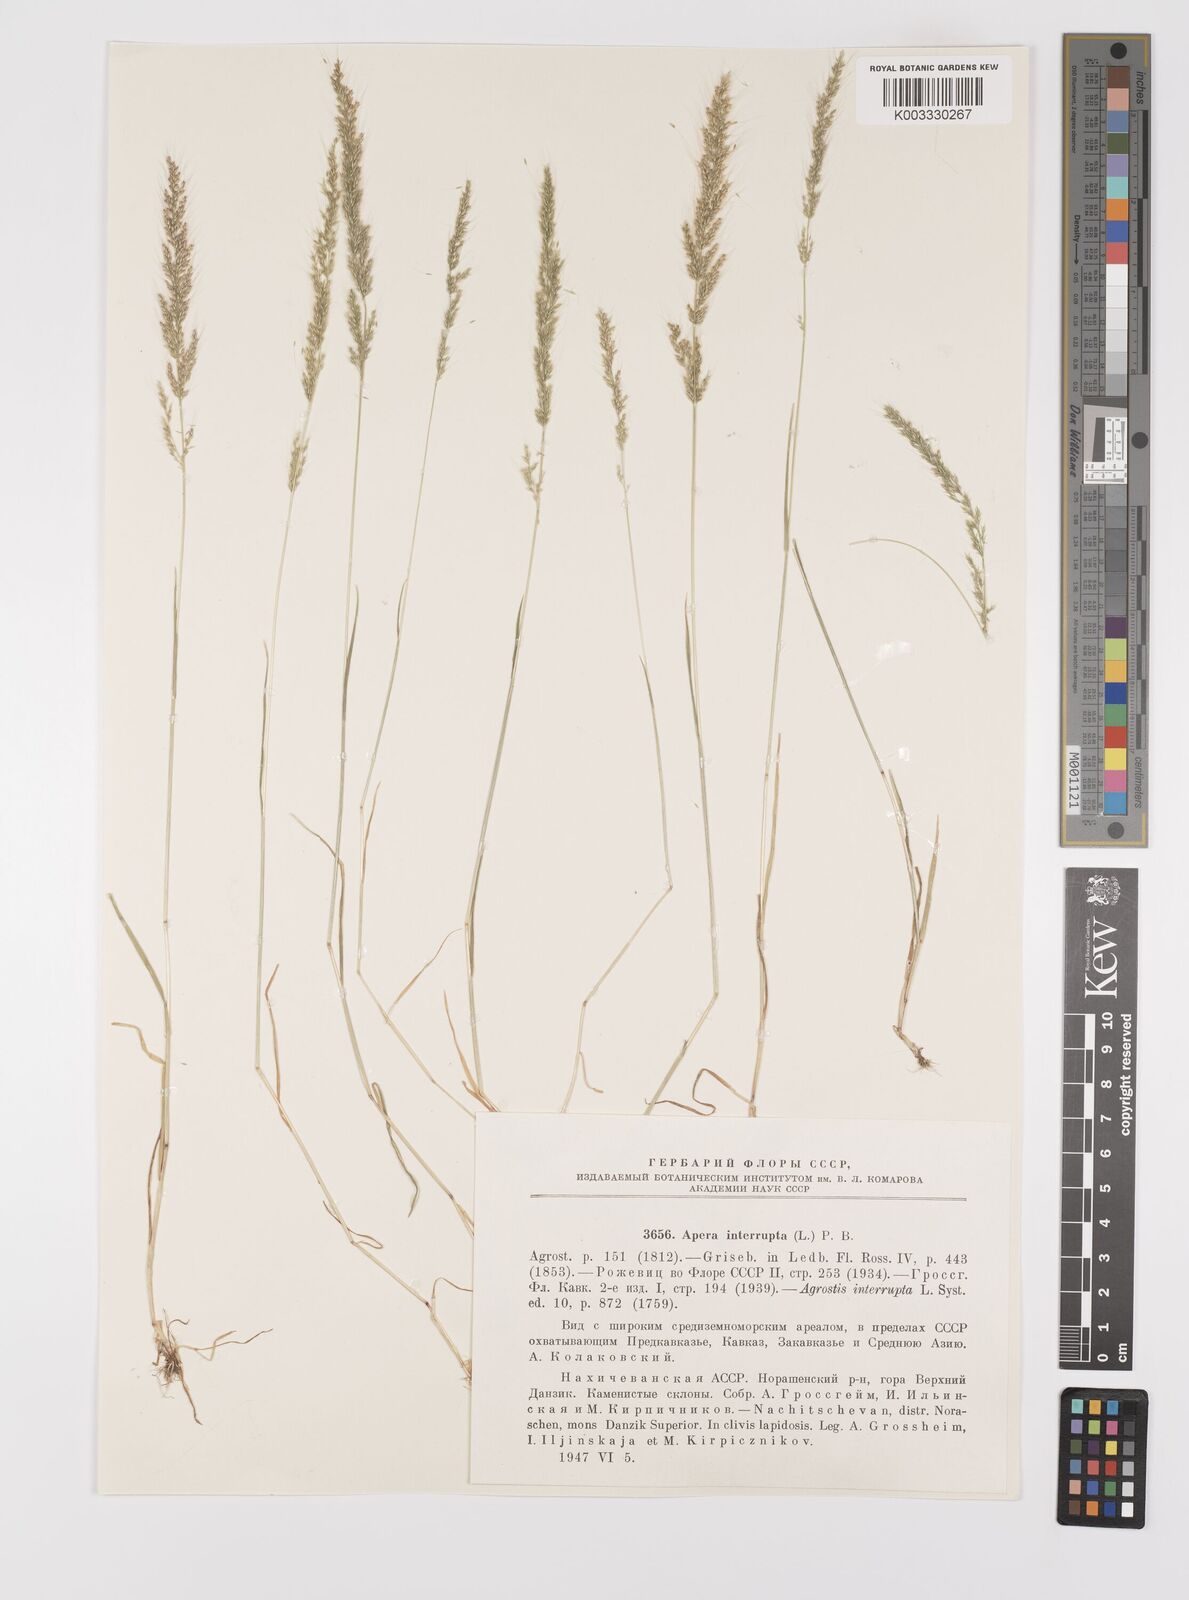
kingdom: Plantae
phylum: Tracheophyta
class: Liliopsida
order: Poales
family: Poaceae
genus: Apera
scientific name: Apera interrupta
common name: Dense silky-bent
